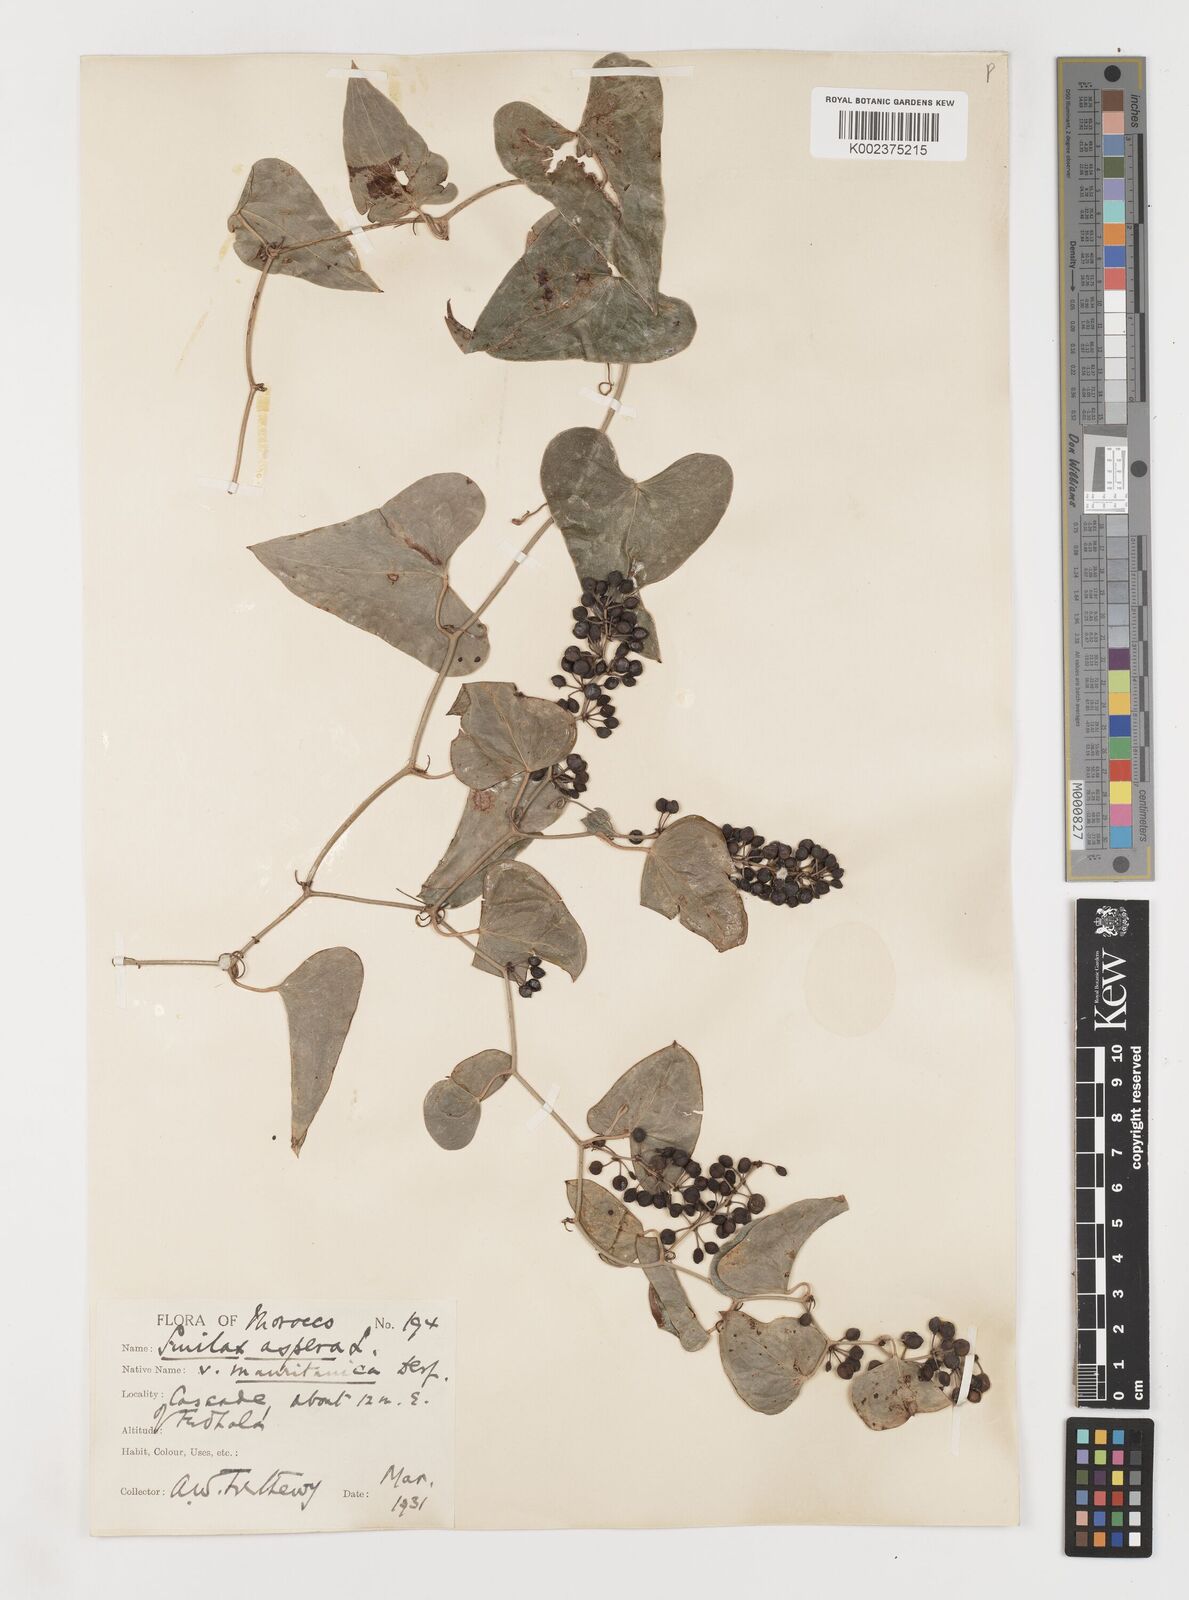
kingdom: Plantae
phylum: Tracheophyta
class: Liliopsida
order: Liliales
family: Smilacaceae
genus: Smilax
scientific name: Smilax aspera
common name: Common smilax
